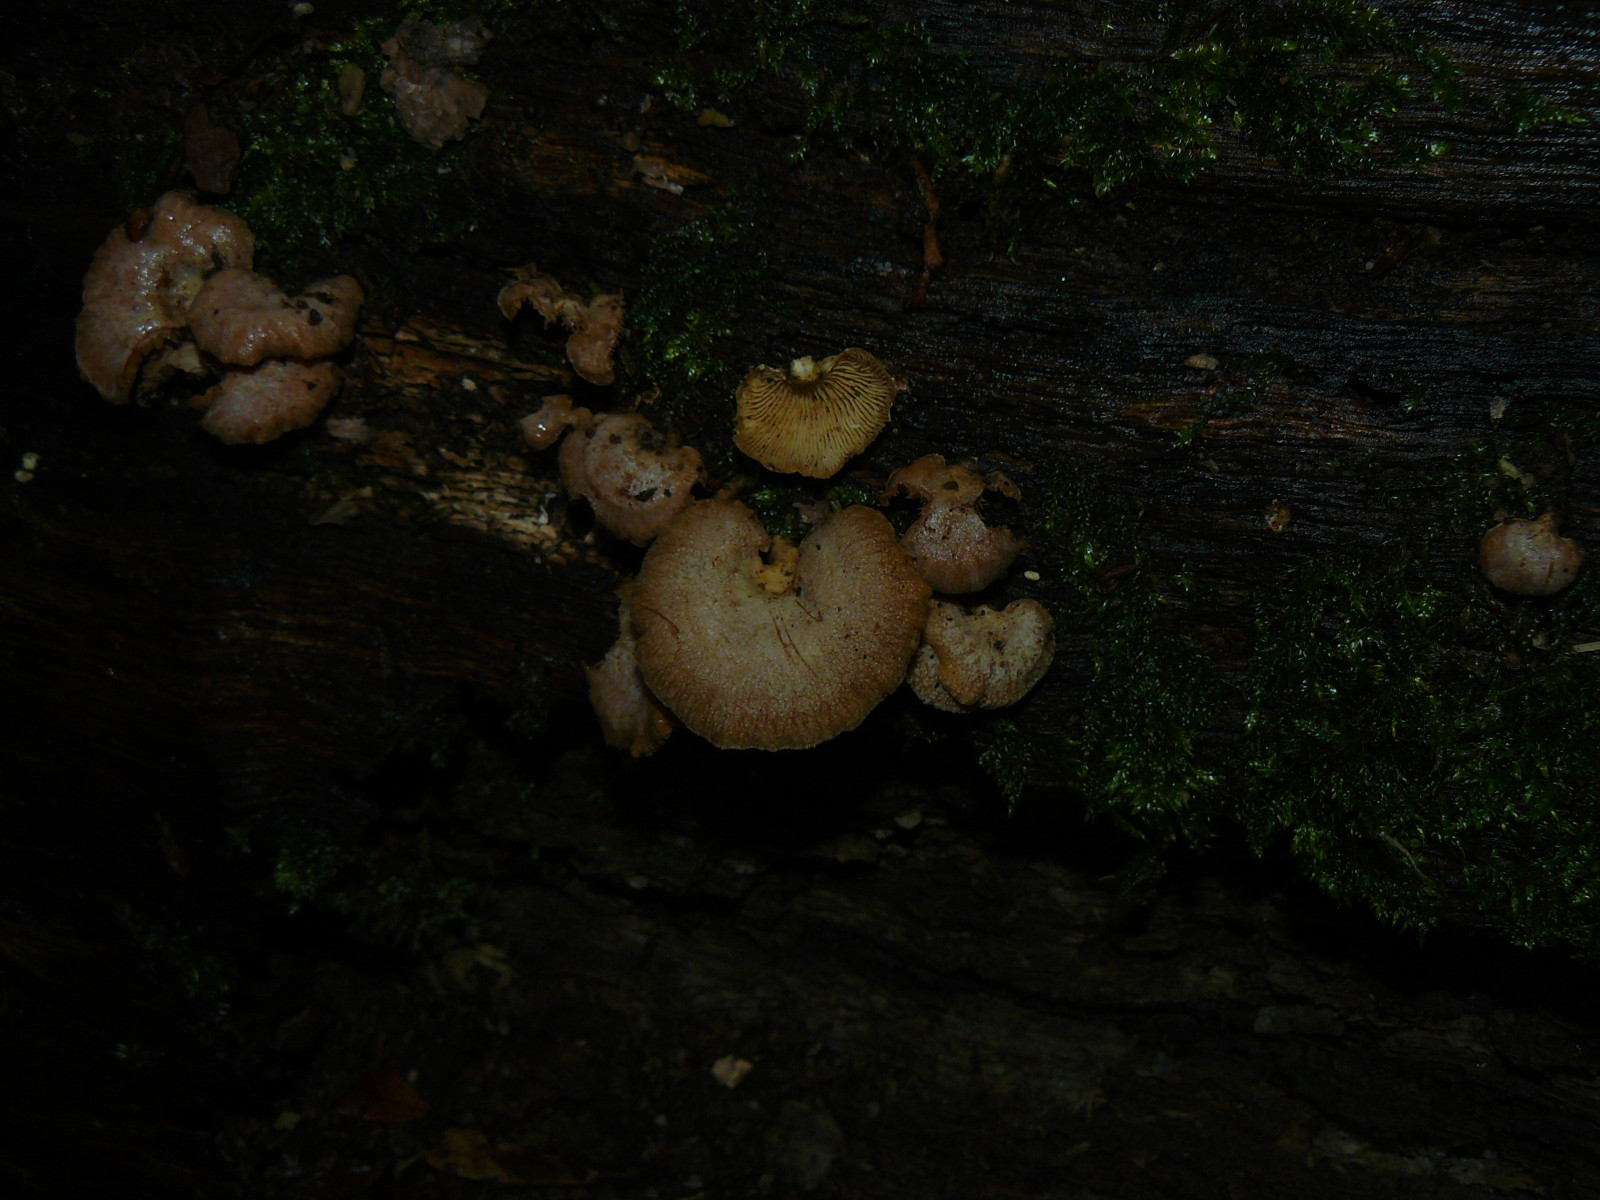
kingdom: Fungi
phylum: Basidiomycota
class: Agaricomycetes
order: Agaricales
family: Mycenaceae
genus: Panellus
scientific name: Panellus stipticus
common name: kliddet epaulethat
